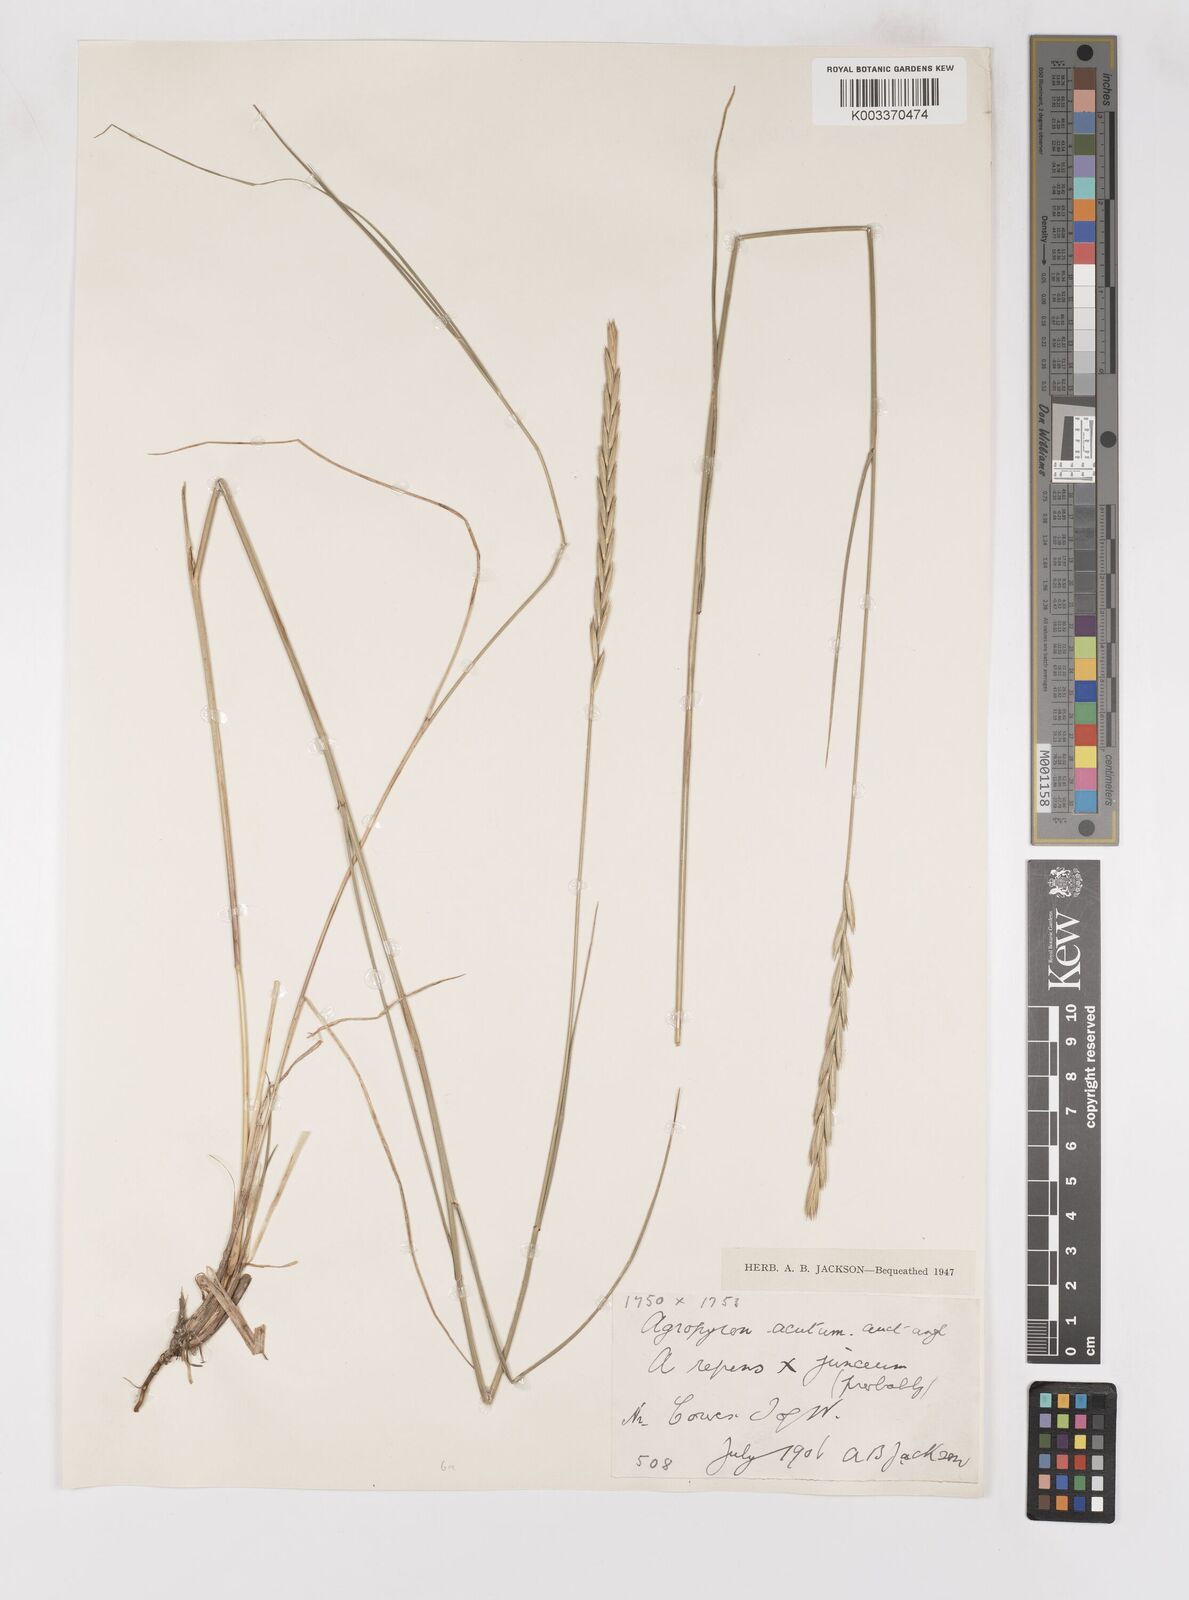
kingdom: Plantae
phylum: Tracheophyta
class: Liliopsida
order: Poales
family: Poaceae
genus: Thinoelymus
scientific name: Thinoelymus obtusiusculus
